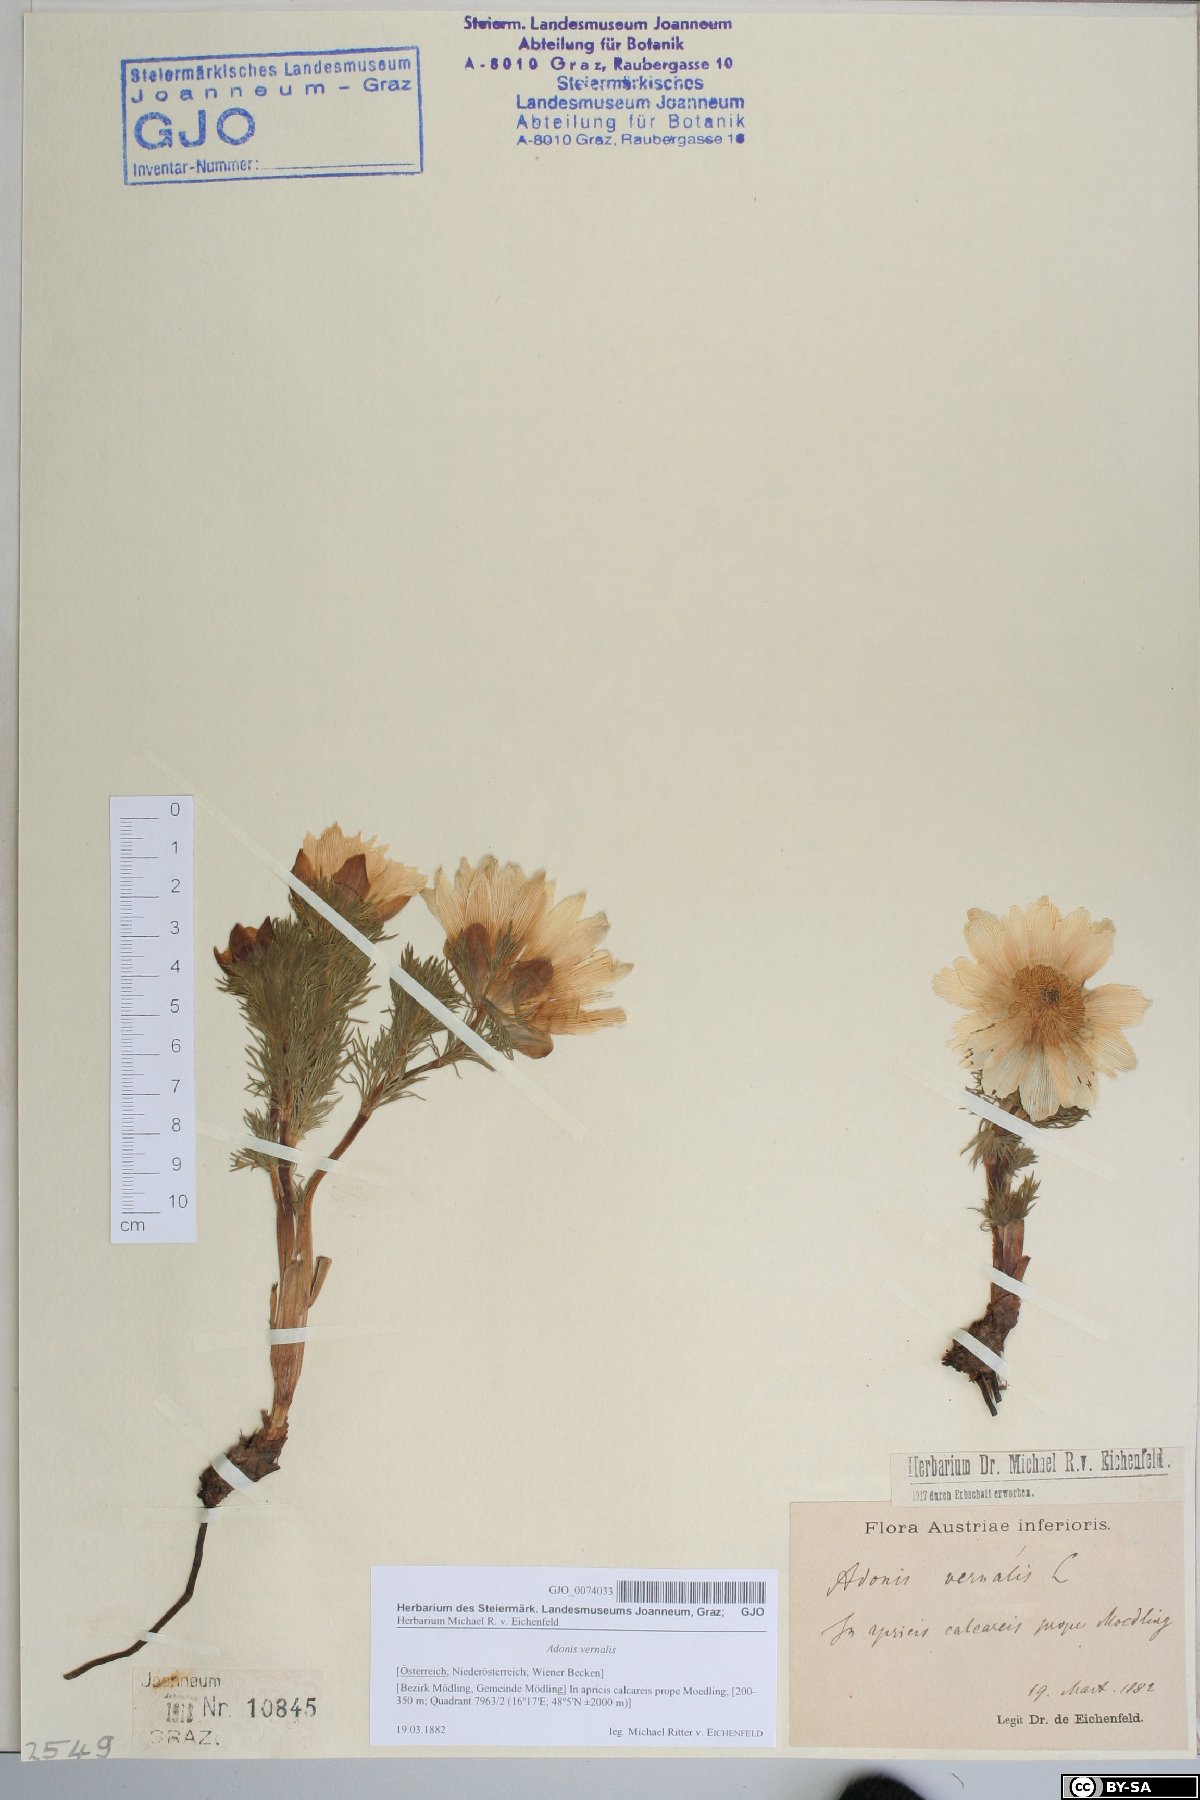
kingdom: Plantae
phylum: Tracheophyta
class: Magnoliopsida
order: Ranunculales
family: Ranunculaceae
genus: Adonis
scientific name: Adonis vernalis
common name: Yellow pheasants-eye
